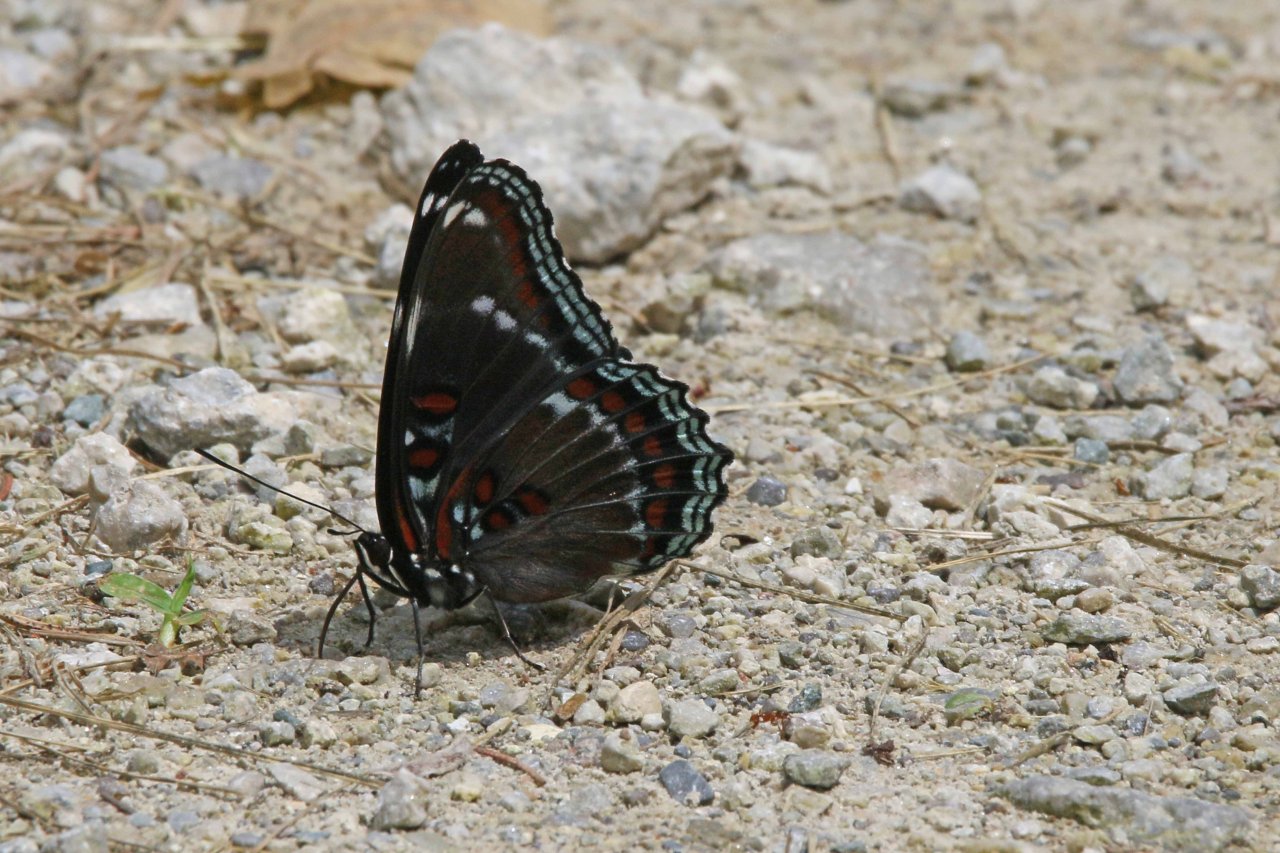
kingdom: Animalia
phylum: Arthropoda
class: Insecta
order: Lepidoptera
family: Nymphalidae
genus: Limenitis
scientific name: Limenitis
